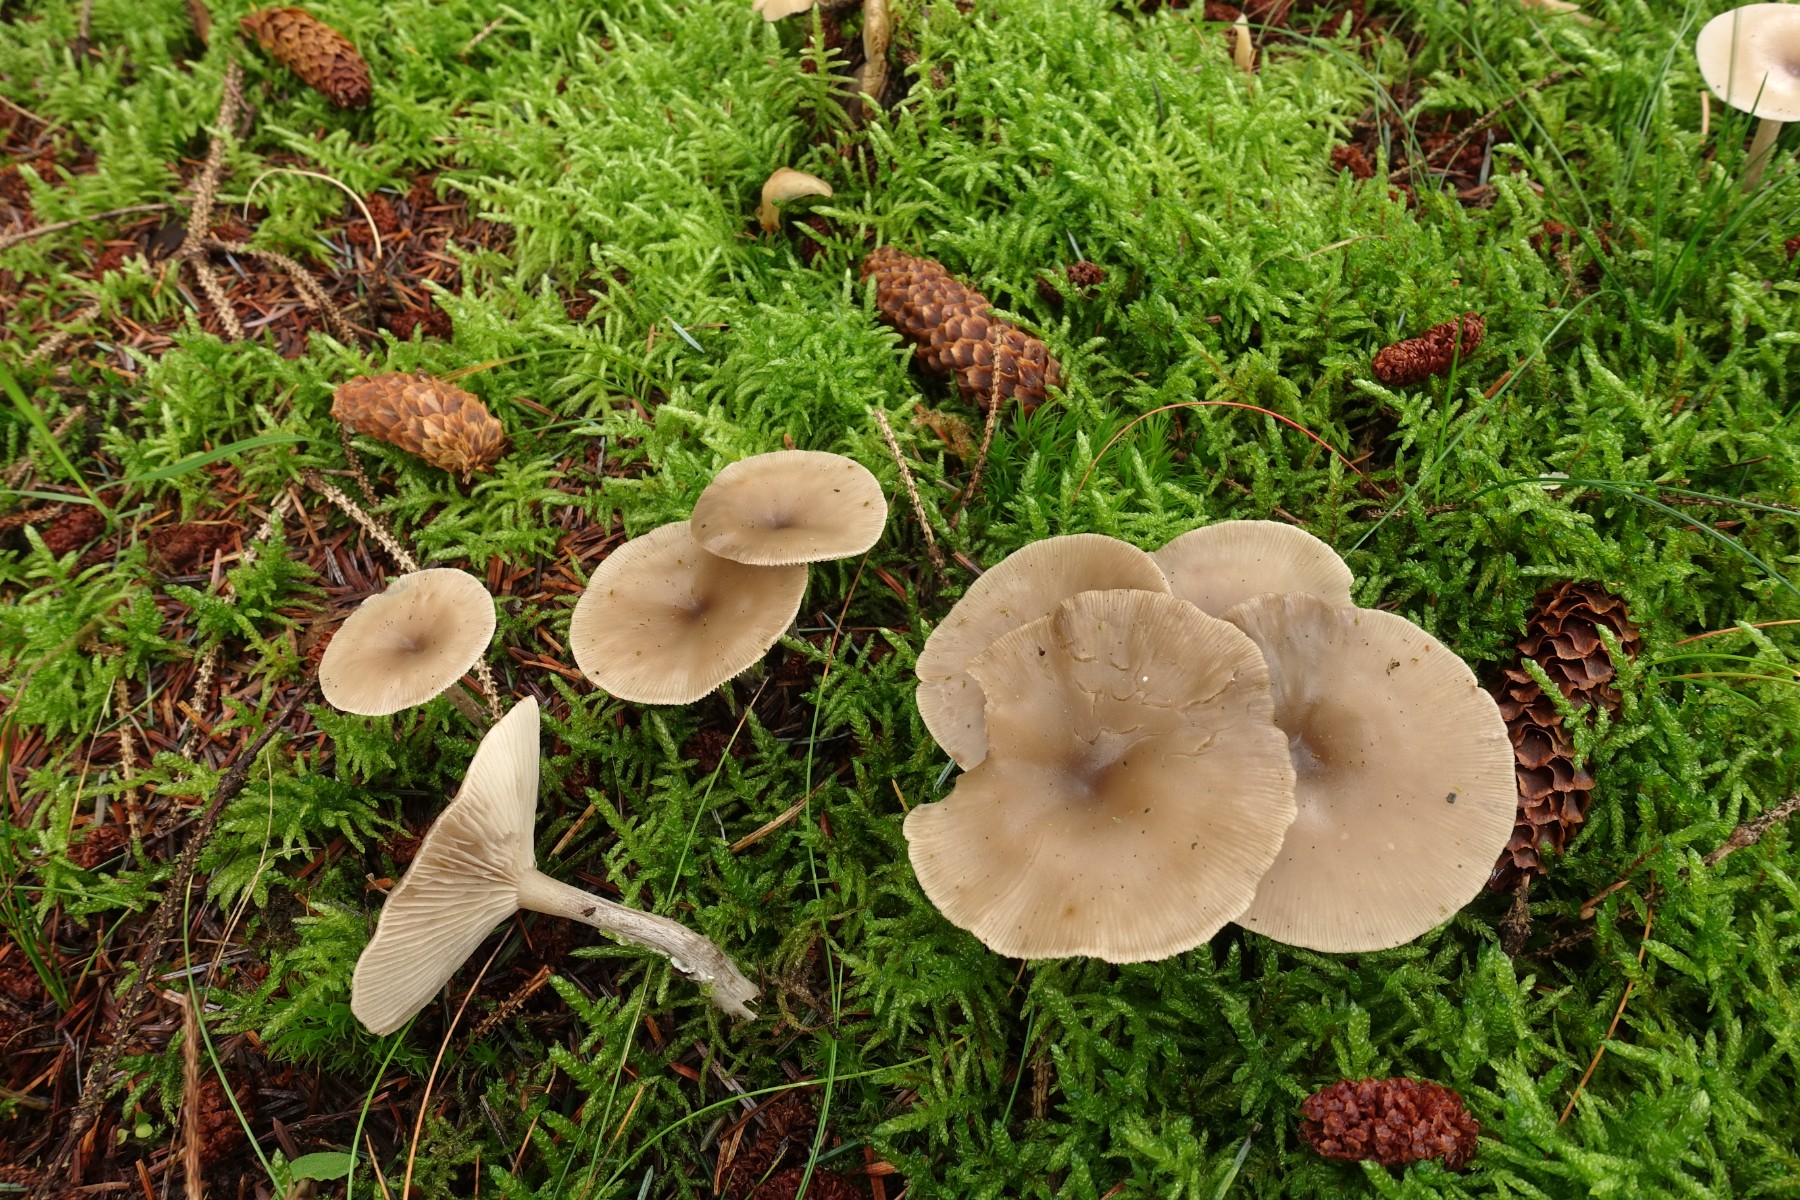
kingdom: Fungi
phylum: Basidiomycota
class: Agaricomycetes
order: Agaricales
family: Tricholomataceae
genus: Clitocybe
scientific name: Clitocybe metachroa
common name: grå tragthat
